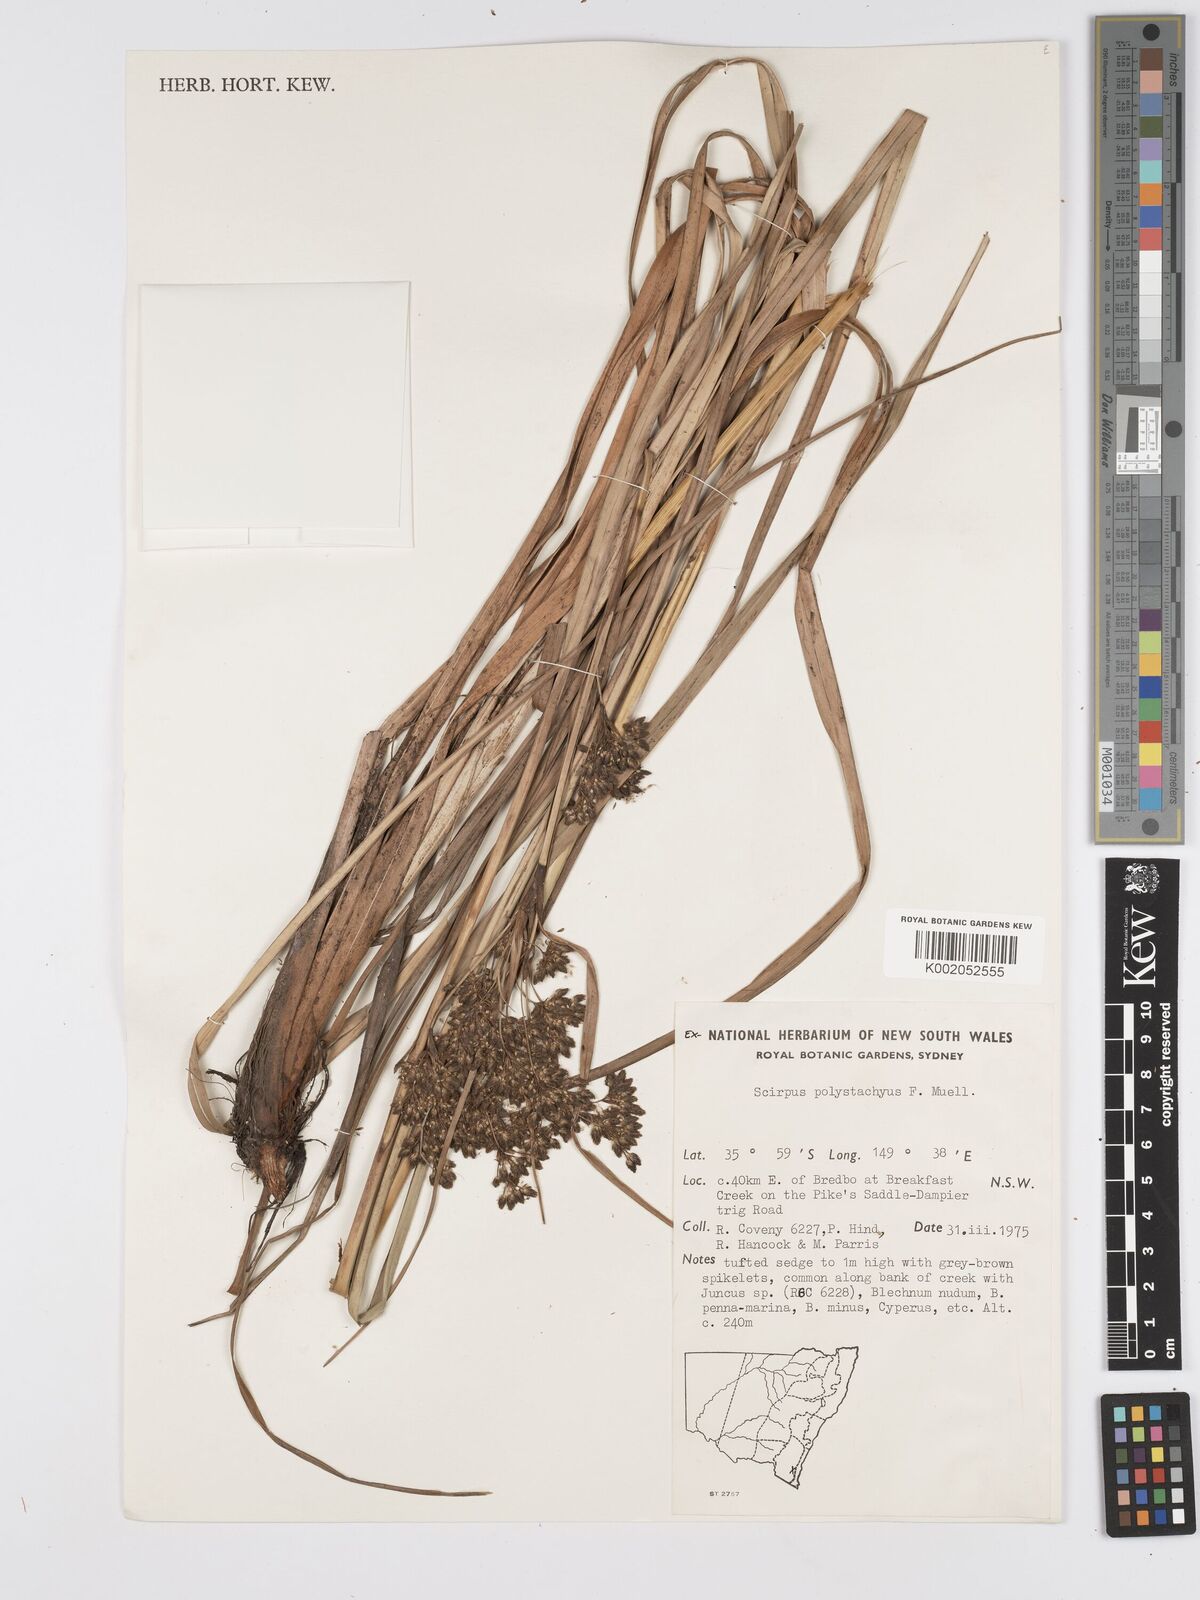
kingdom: Plantae
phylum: Tracheophyta
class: Liliopsida
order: Poales
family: Cyperaceae
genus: Scirpus
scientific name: Scirpus polystachyus
